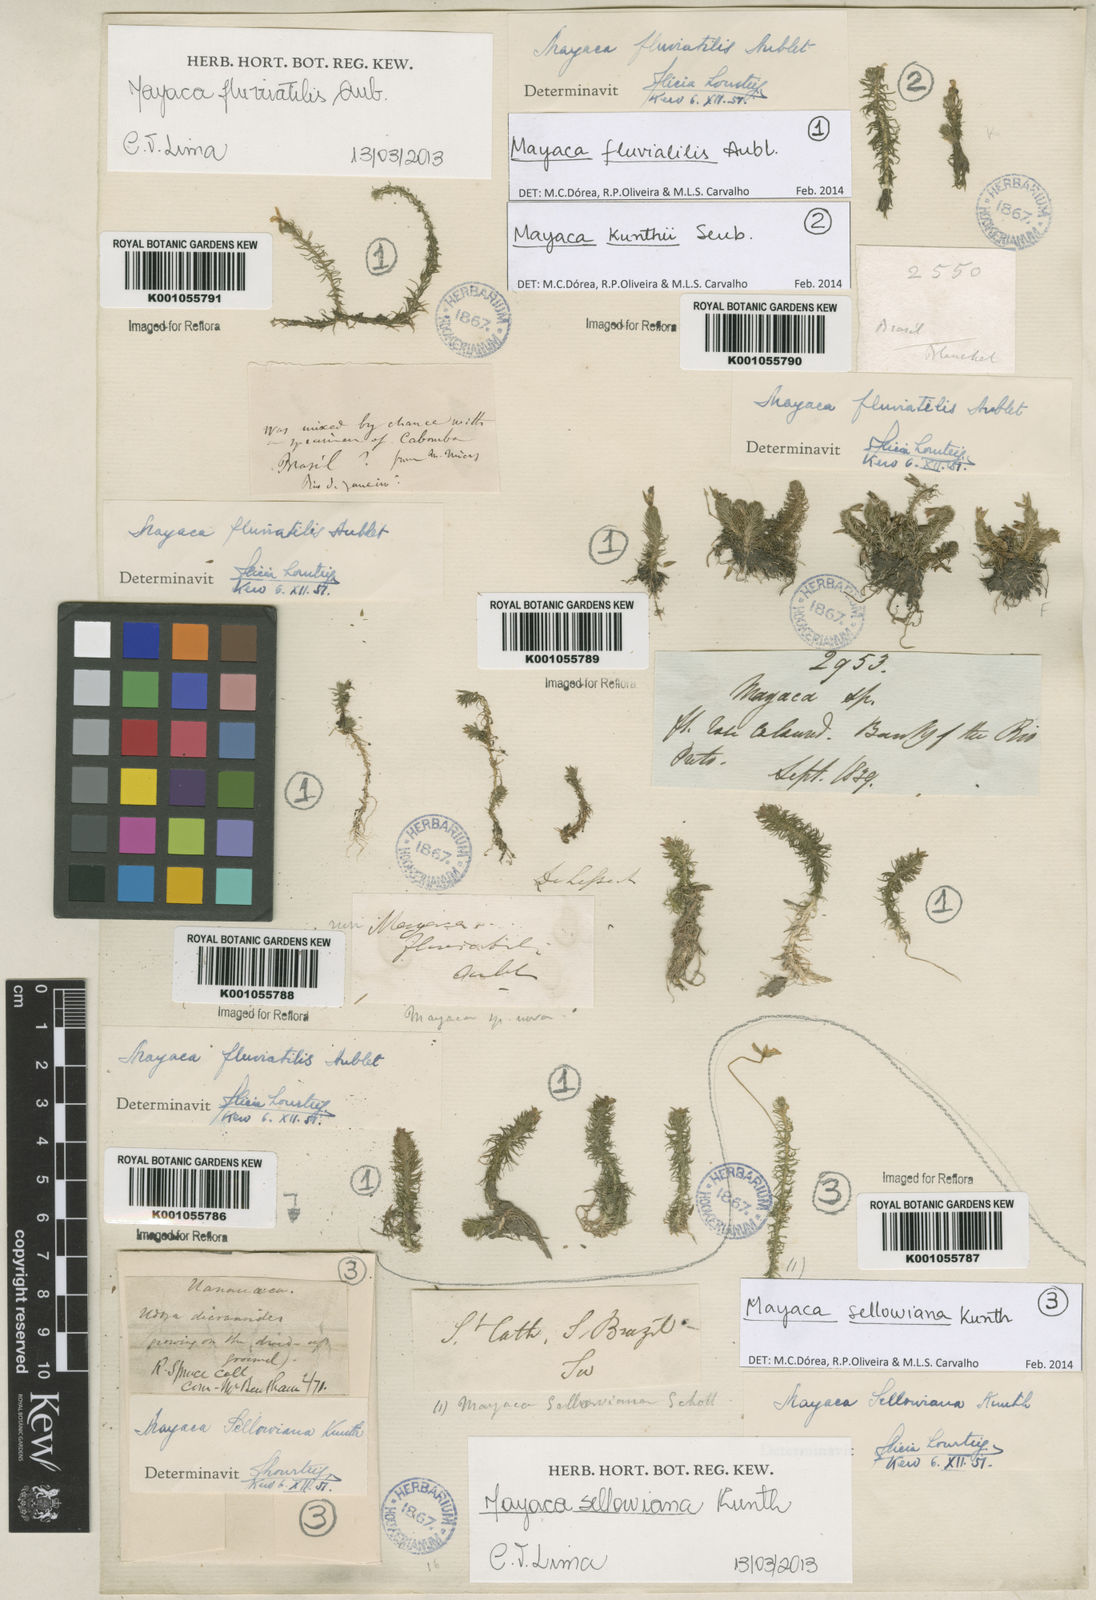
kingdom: Plantae
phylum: Tracheophyta
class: Liliopsida
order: Poales
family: Mayacaceae
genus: Mayaca
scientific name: Mayaca
